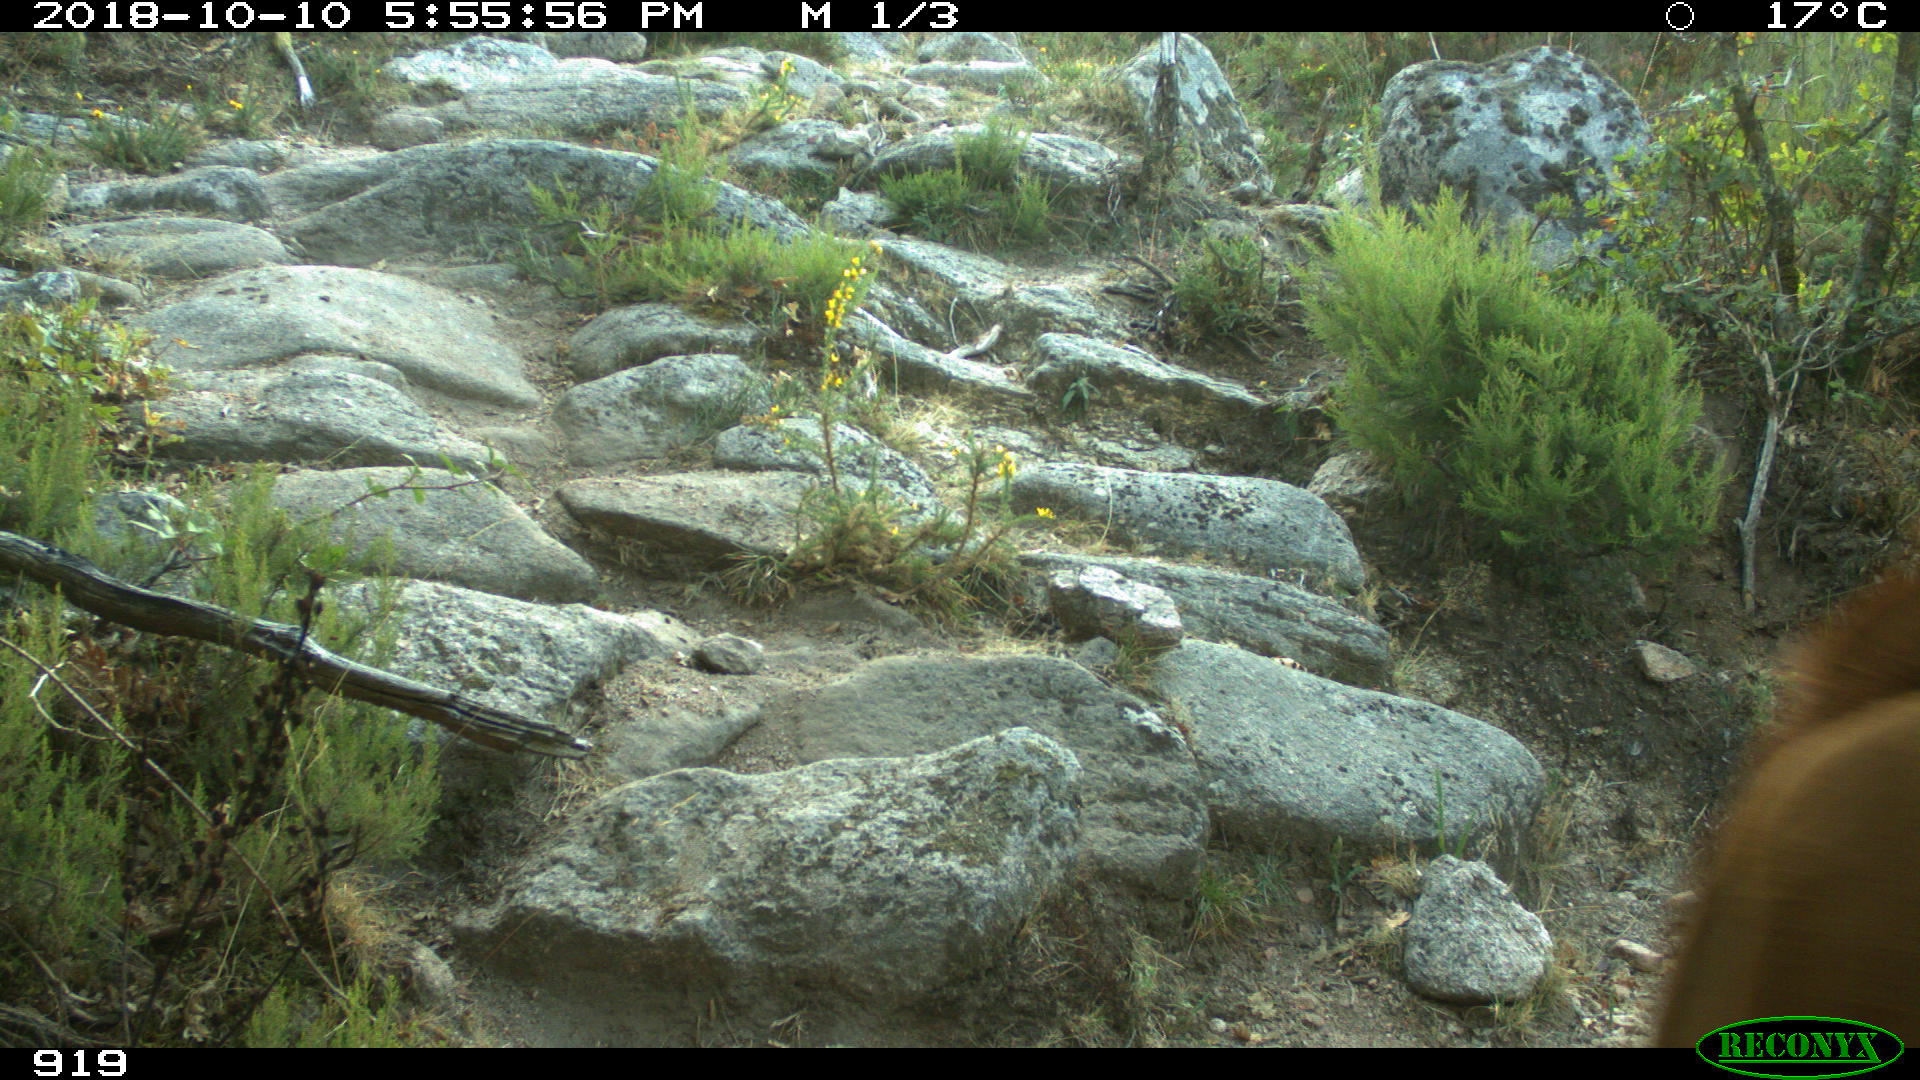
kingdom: Animalia
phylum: Chordata
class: Mammalia
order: Artiodactyla
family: Bovidae
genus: Bos
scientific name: Bos taurus
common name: Domesticated cattle
